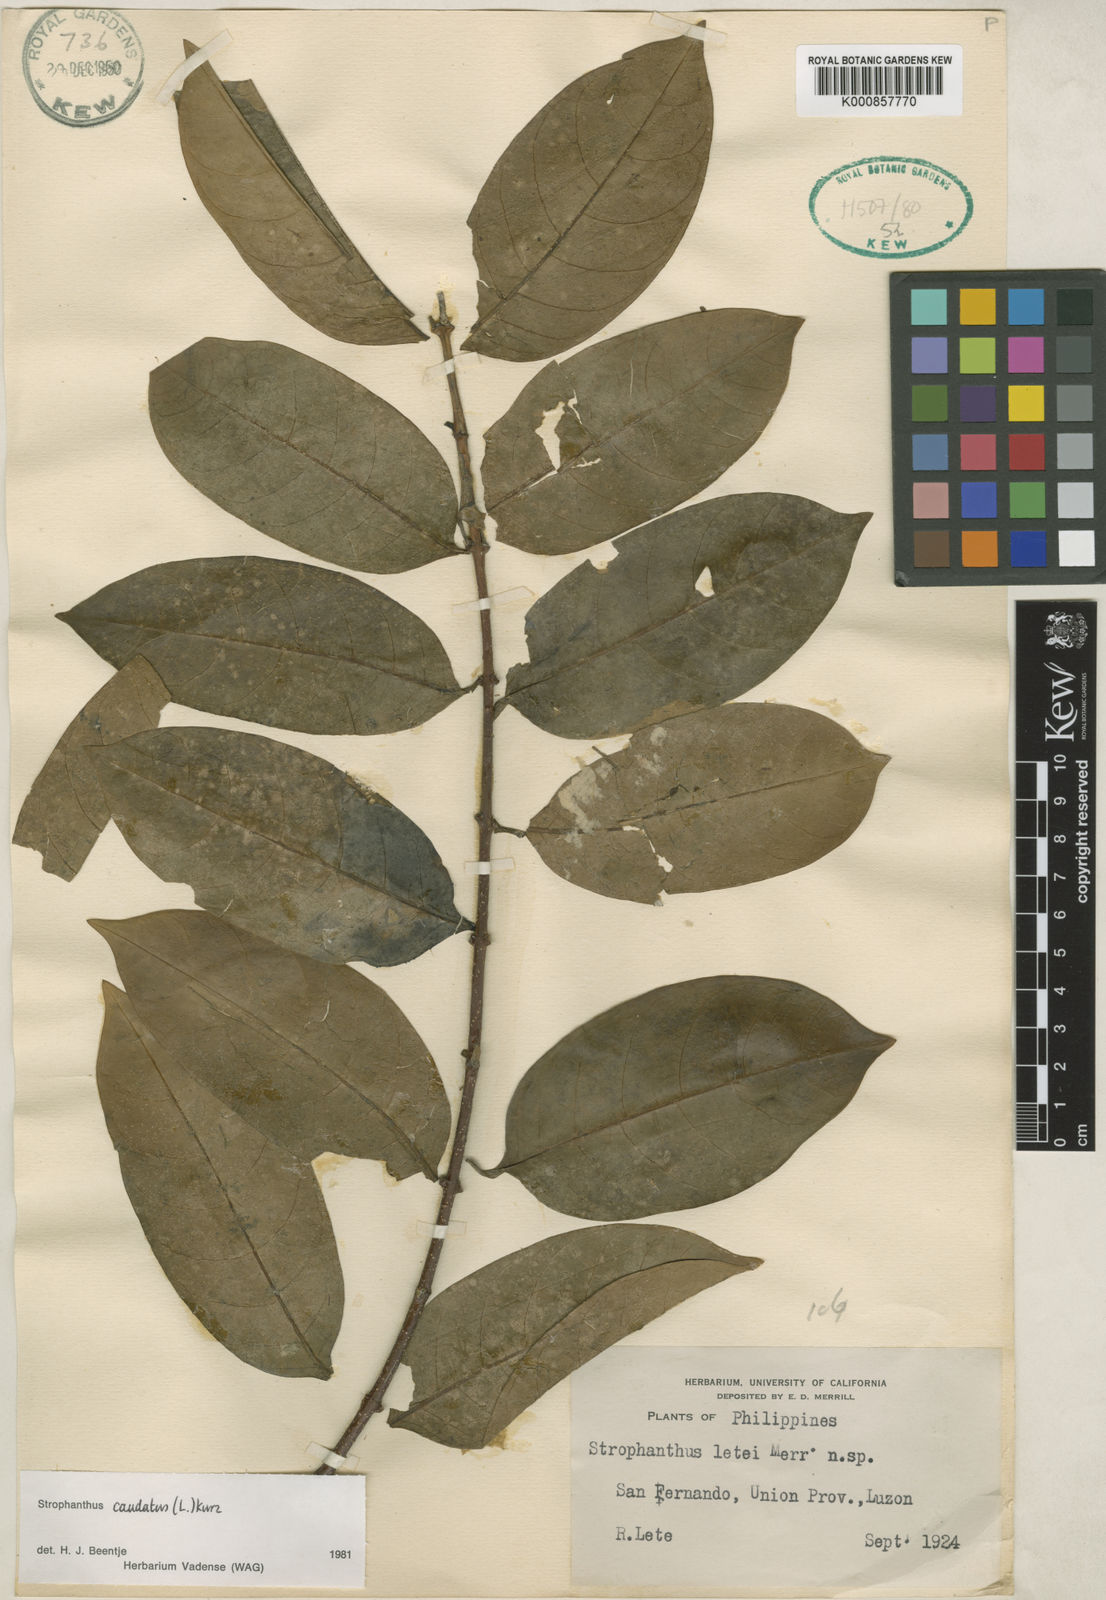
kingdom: Plantae
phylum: Tracheophyta
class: Magnoliopsida
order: Gentianales
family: Apocynaceae
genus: Strophanthus
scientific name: Strophanthus caudatus
